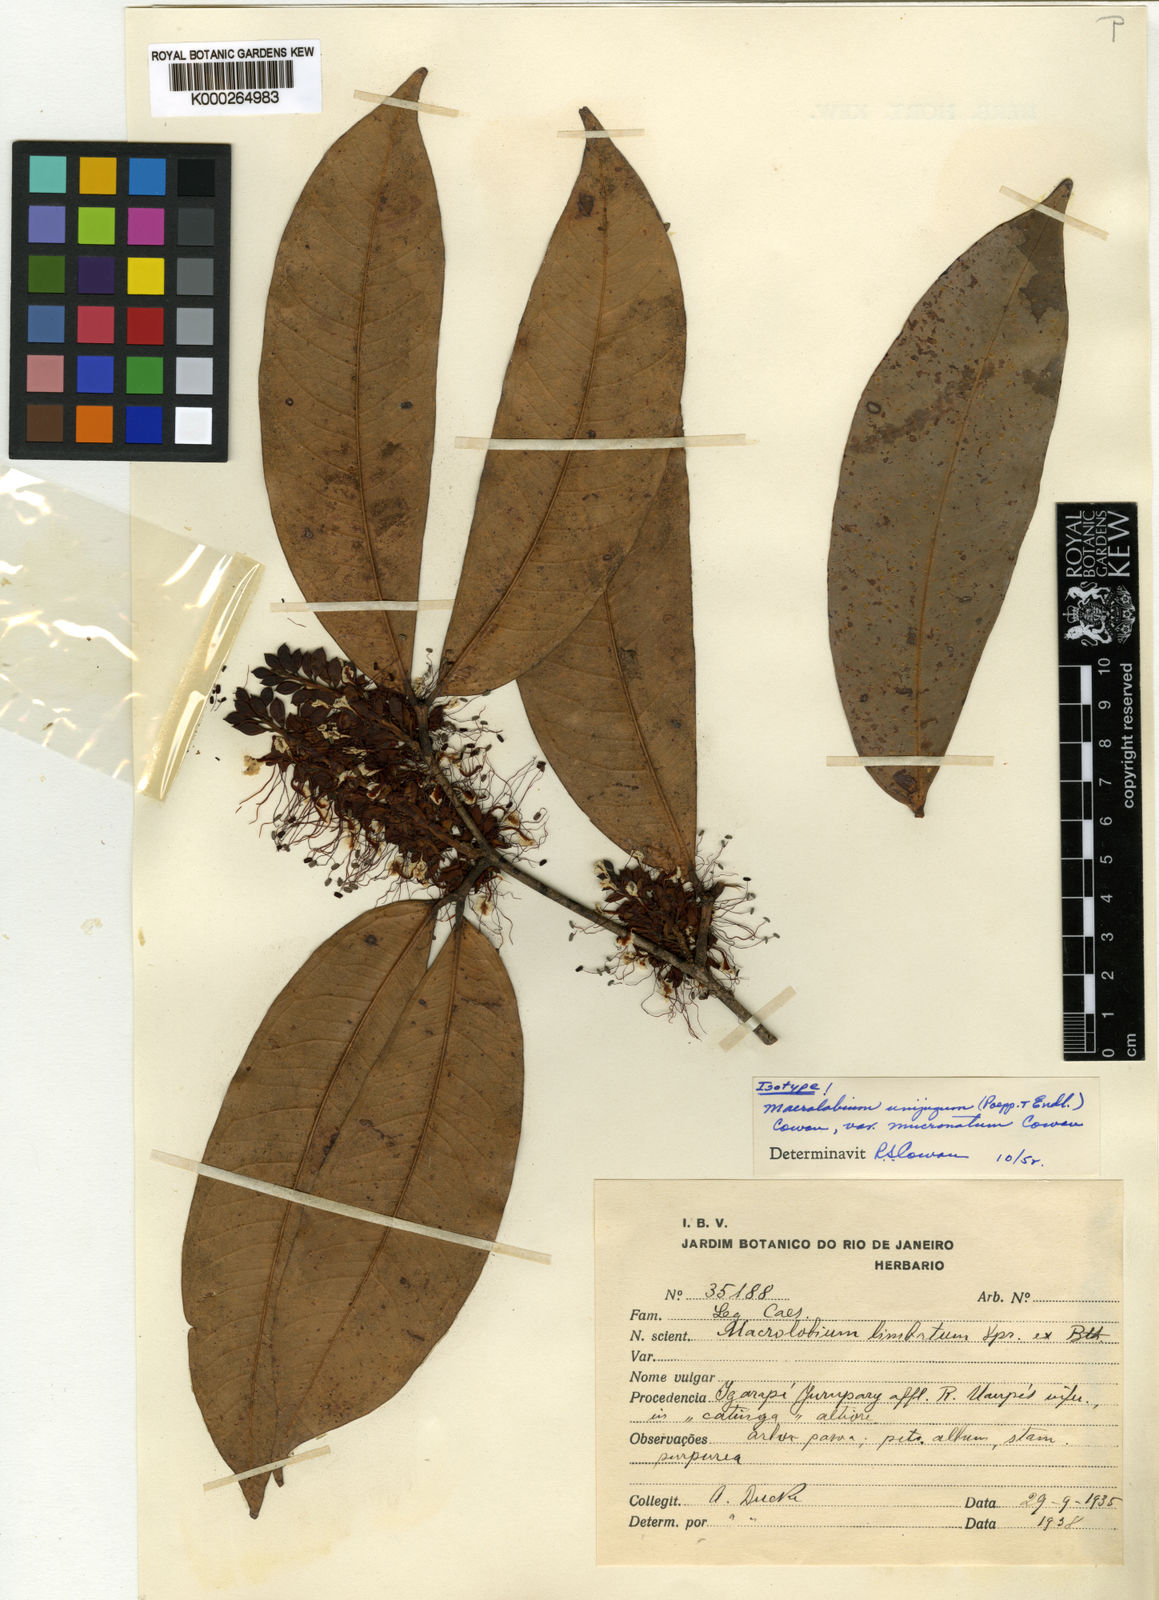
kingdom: Plantae
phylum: Tracheophyta
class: Magnoliopsida
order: Fabales
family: Fabaceae
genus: Macrolobium
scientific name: Macrolobium limbatum
